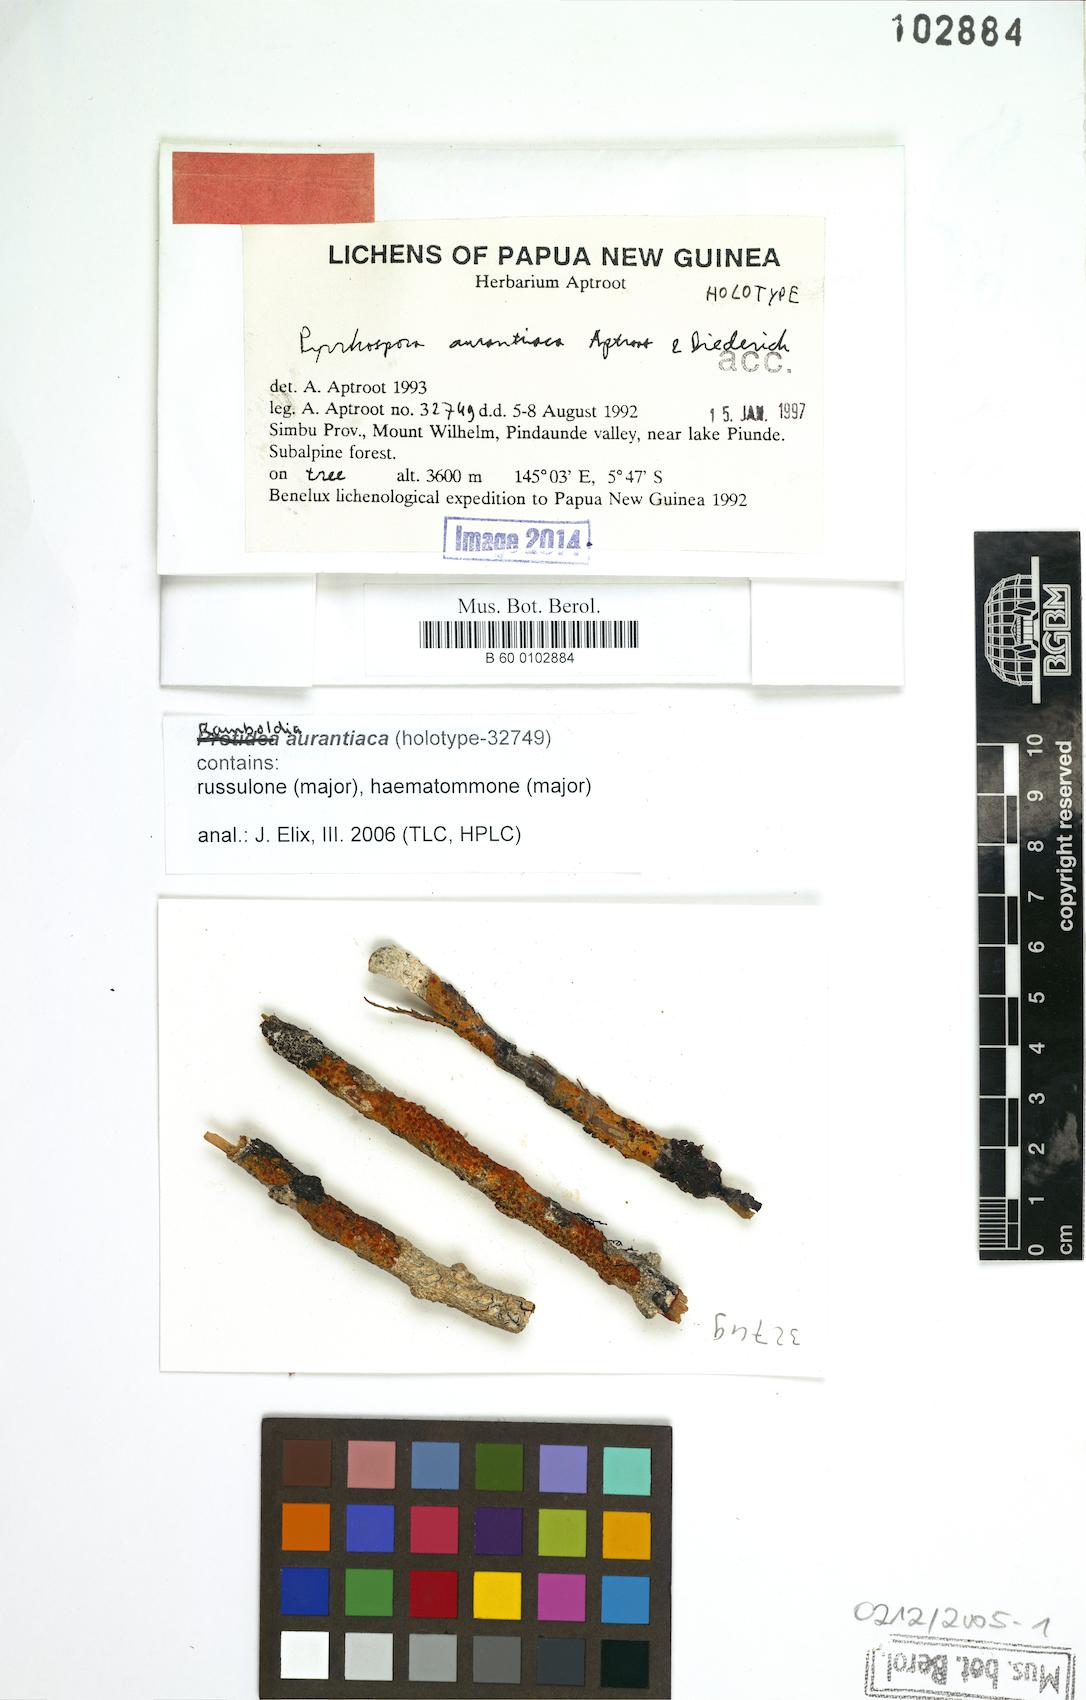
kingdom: Fungi
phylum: Ascomycota
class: Lecanoromycetes
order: Lecanorales
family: Ramboldiaceae
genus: Ramboldia
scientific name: Ramboldia aurantiaca
